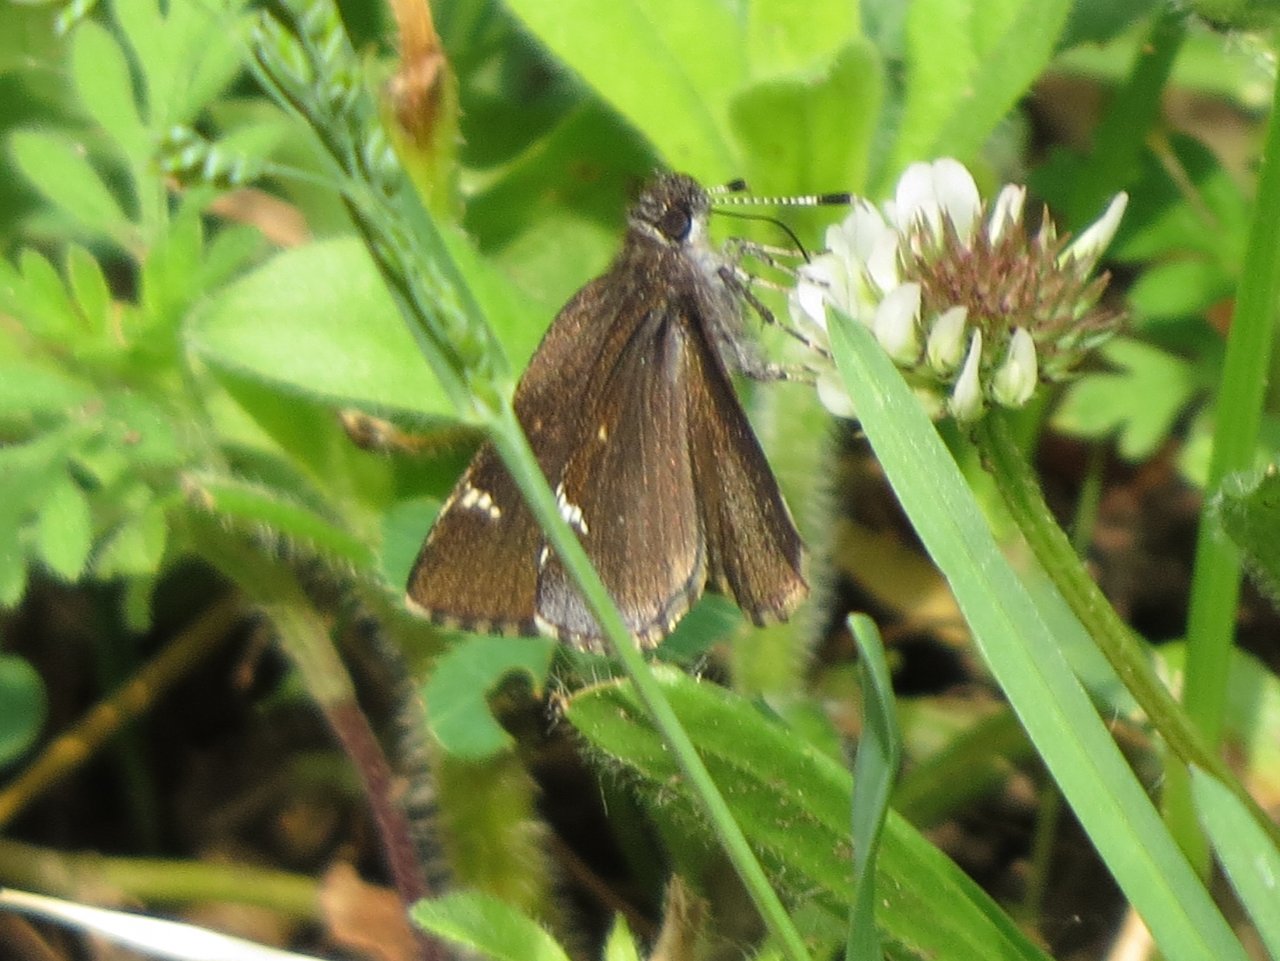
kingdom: Animalia
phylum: Arthropoda
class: Insecta
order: Lepidoptera
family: Hesperiidae
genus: Mastor
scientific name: Mastor vialis
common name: Common Roadside-Skipper
